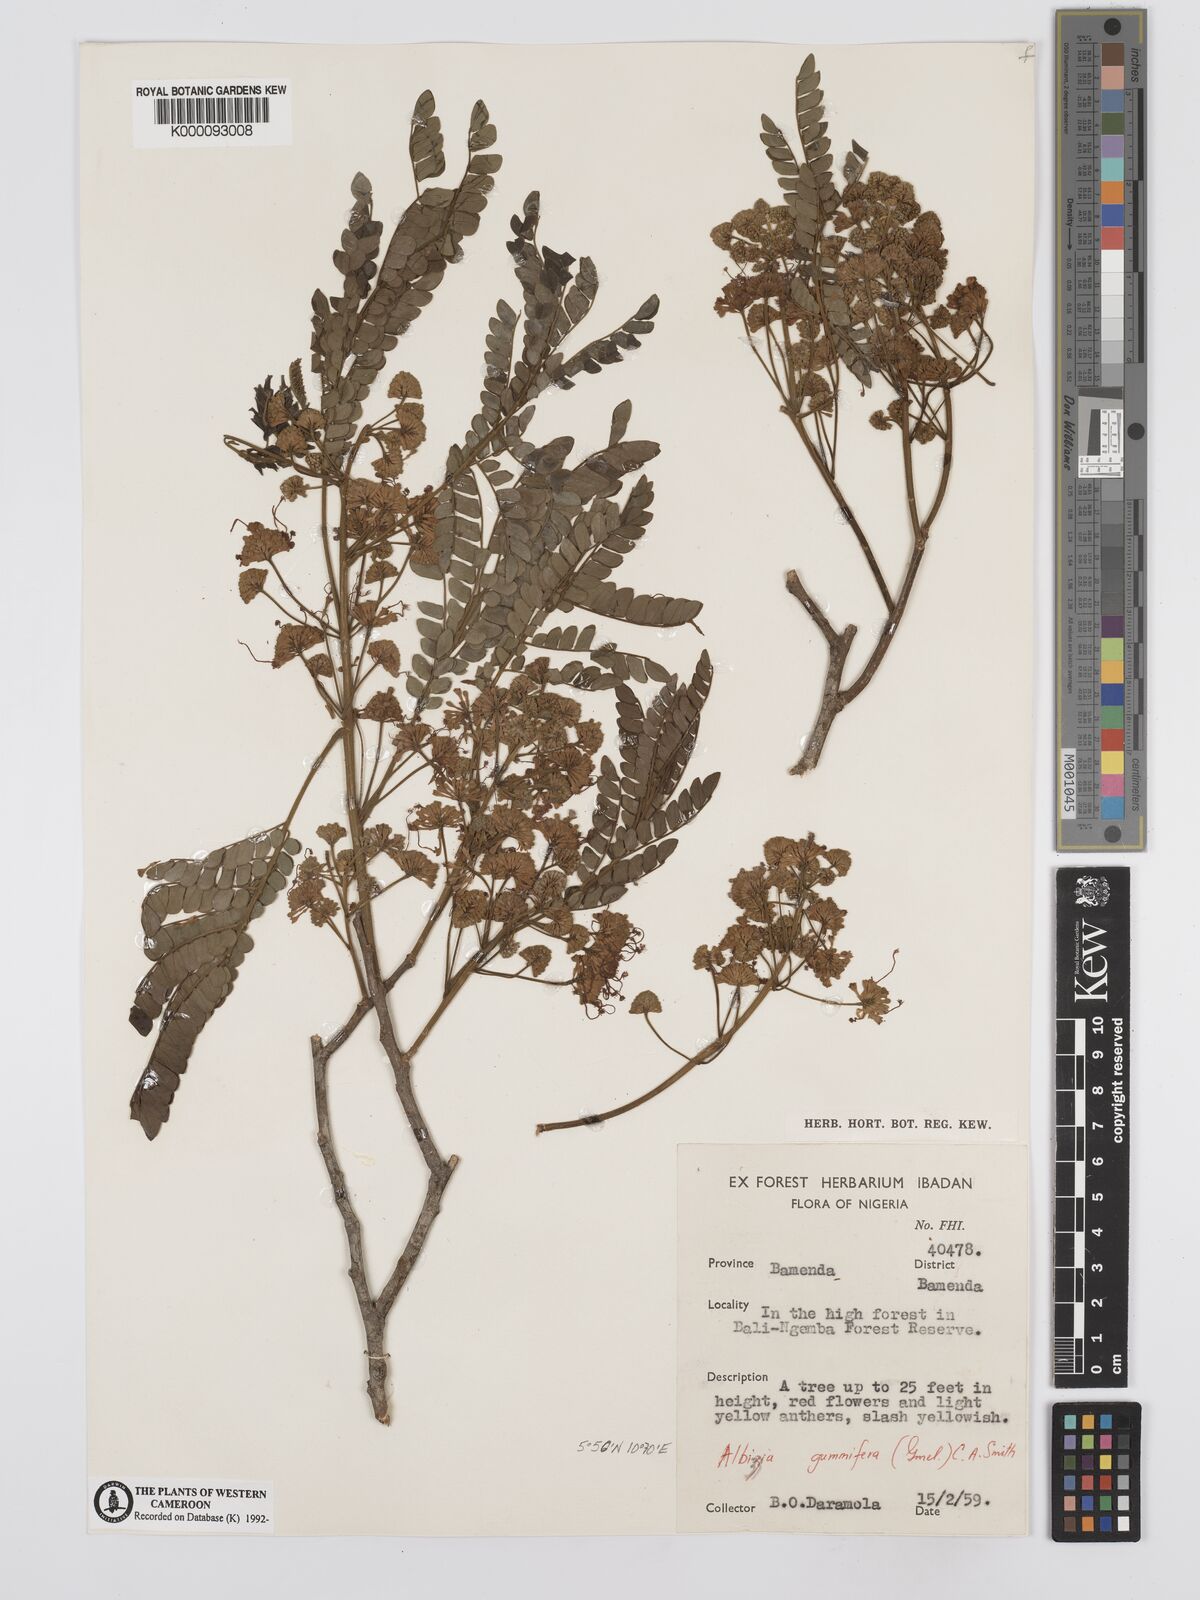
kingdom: Plantae
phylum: Tracheophyta
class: Magnoliopsida
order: Fabales
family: Fabaceae
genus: Albizia
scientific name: Albizia gummifera
